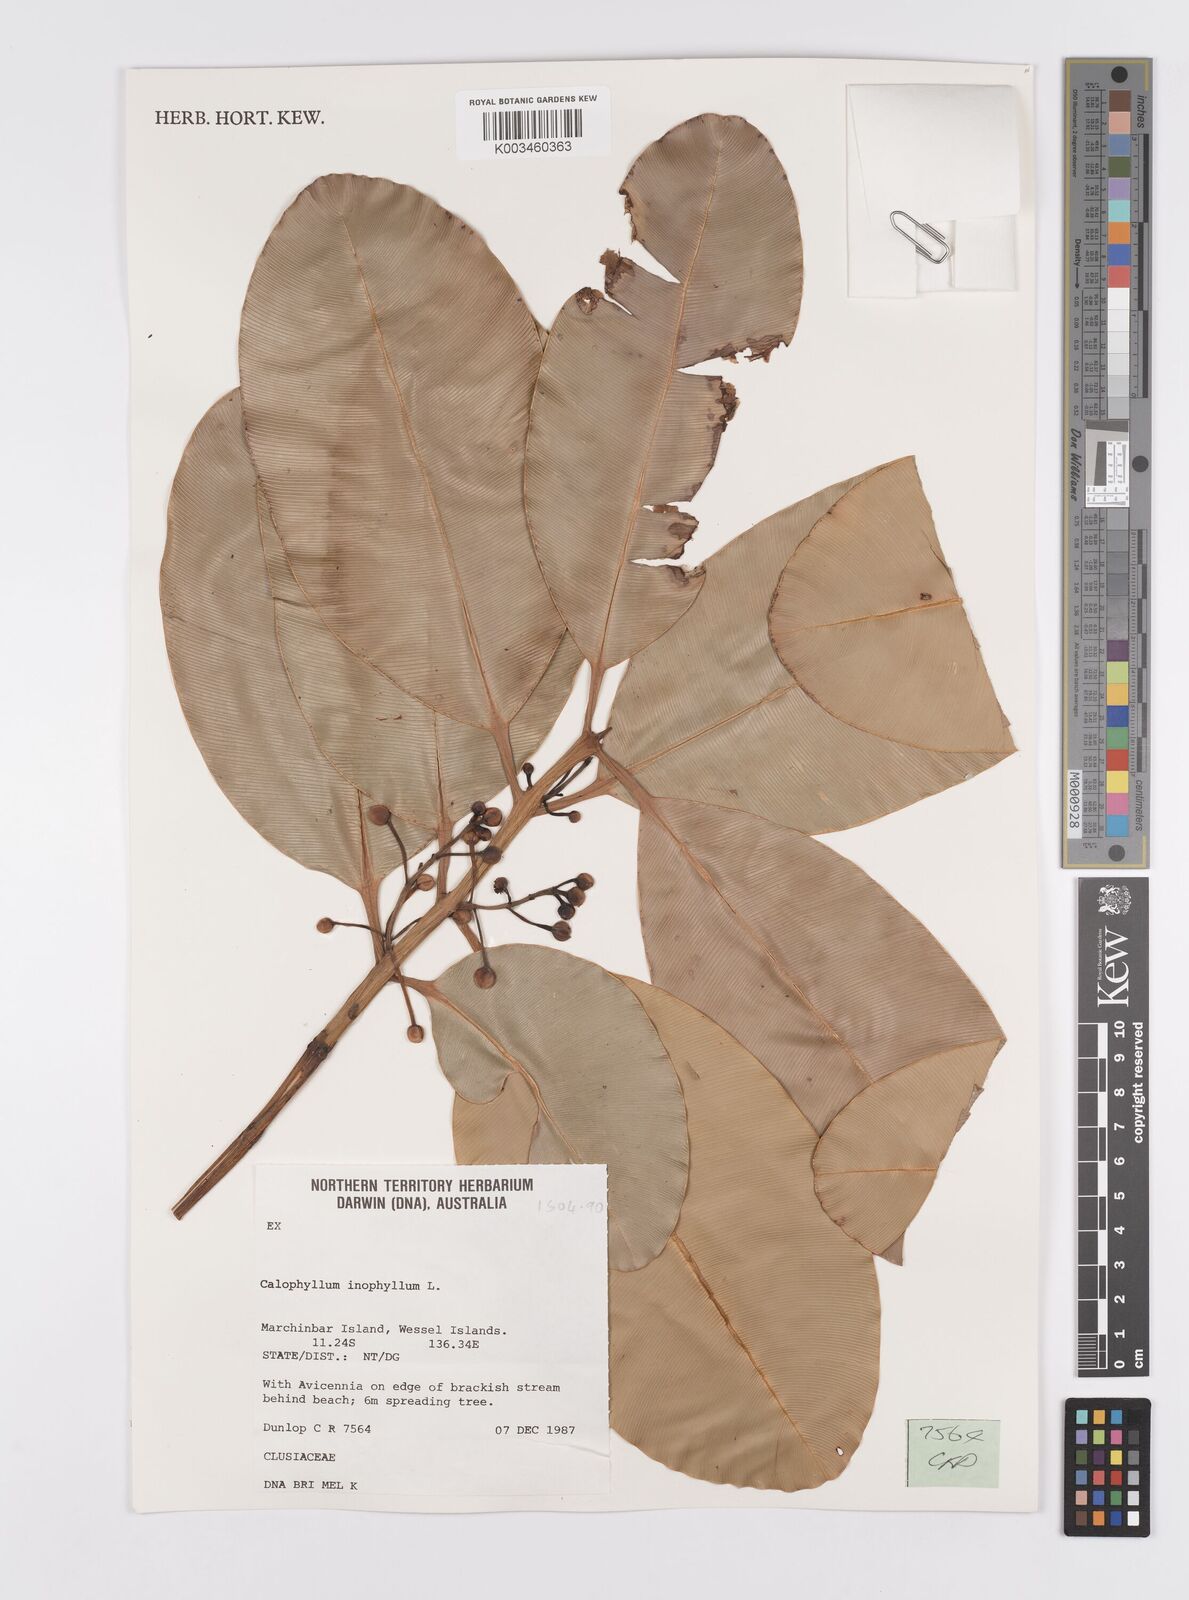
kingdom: Plantae
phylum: Tracheophyta
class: Magnoliopsida
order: Malpighiales
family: Calophyllaceae
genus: Calophyllum
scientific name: Calophyllum inophyllum
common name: Alexandrian laurel
